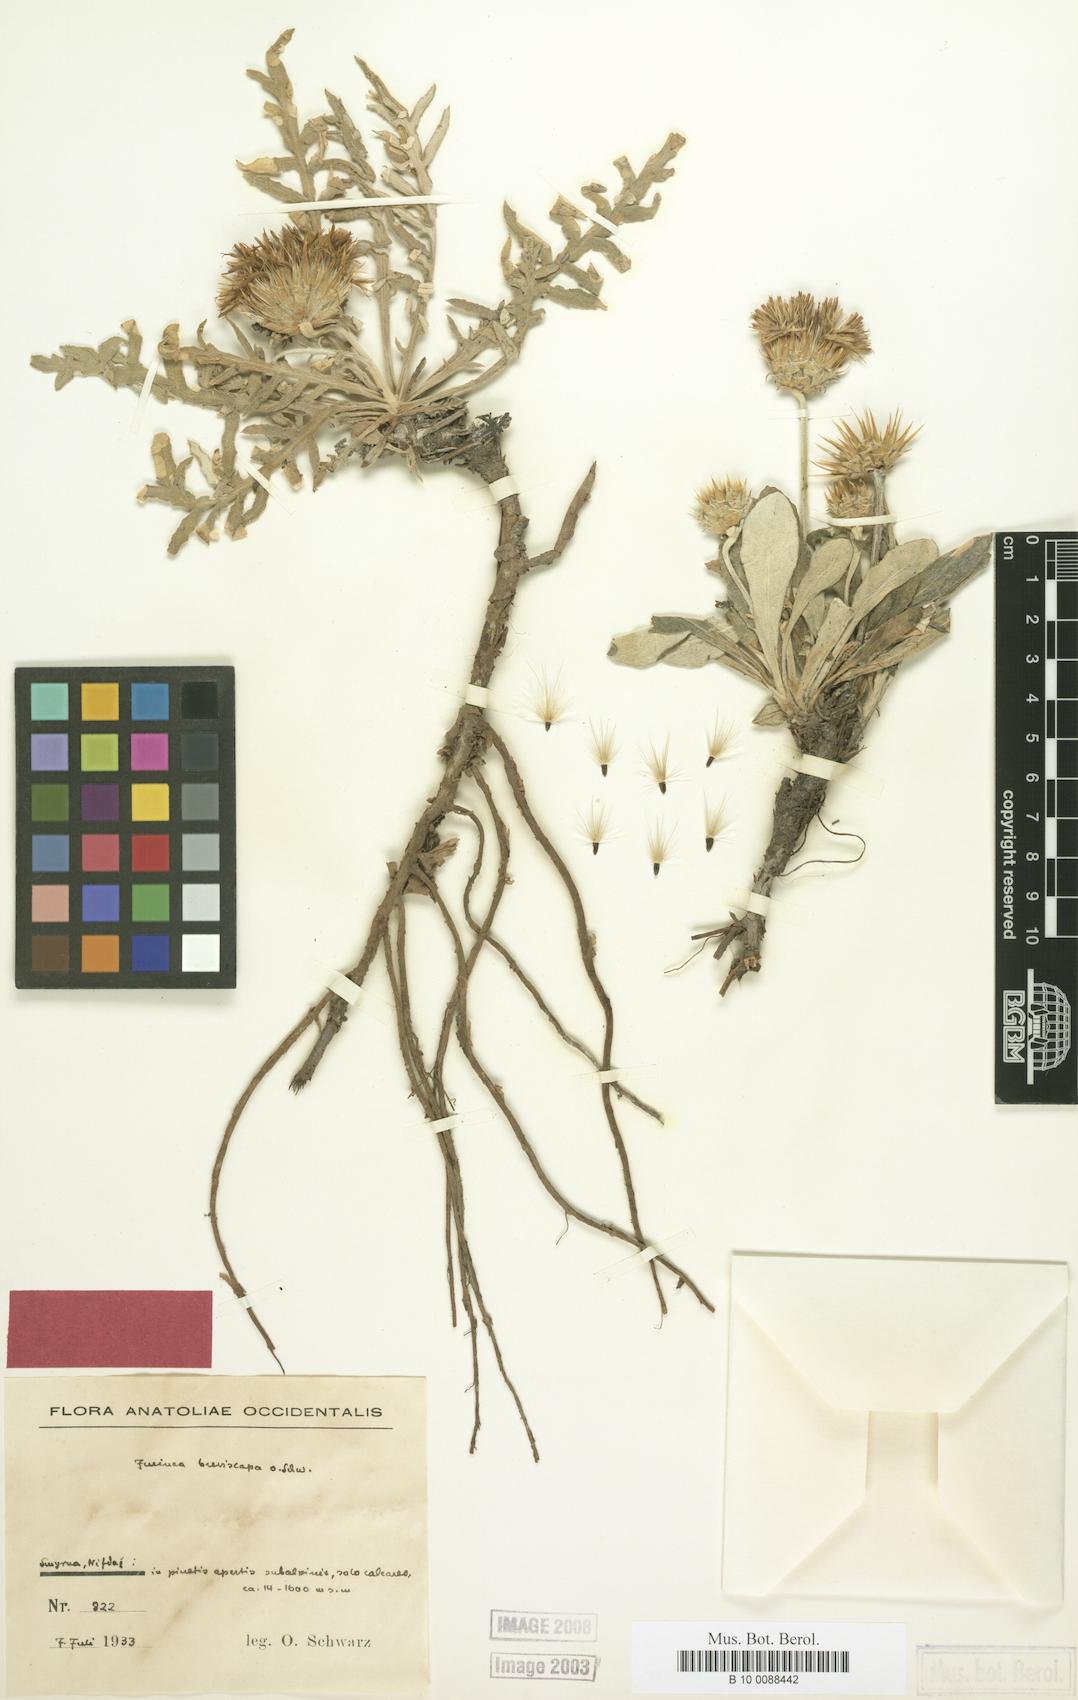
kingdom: Plantae
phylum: Tracheophyta
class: Magnoliopsida
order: Asterales
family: Asteraceae
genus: Jurinea
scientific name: Jurinea breviscapa
